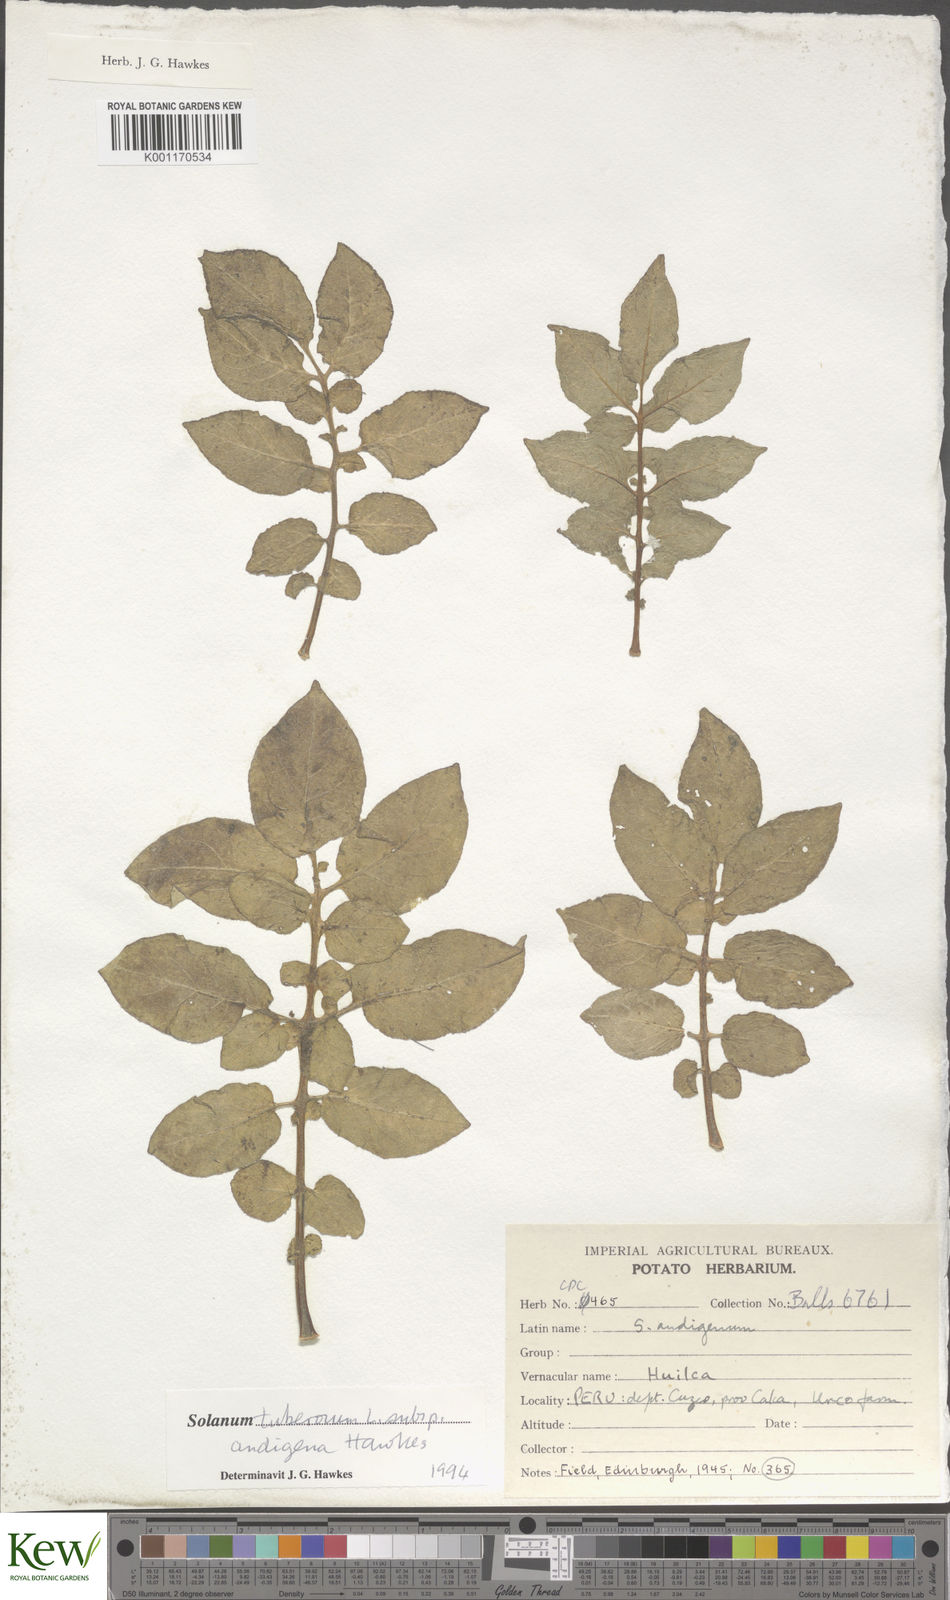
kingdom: Plantae
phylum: Tracheophyta
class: Magnoliopsida
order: Solanales
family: Solanaceae
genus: Solanum
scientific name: Solanum tuberosum
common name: Potato
